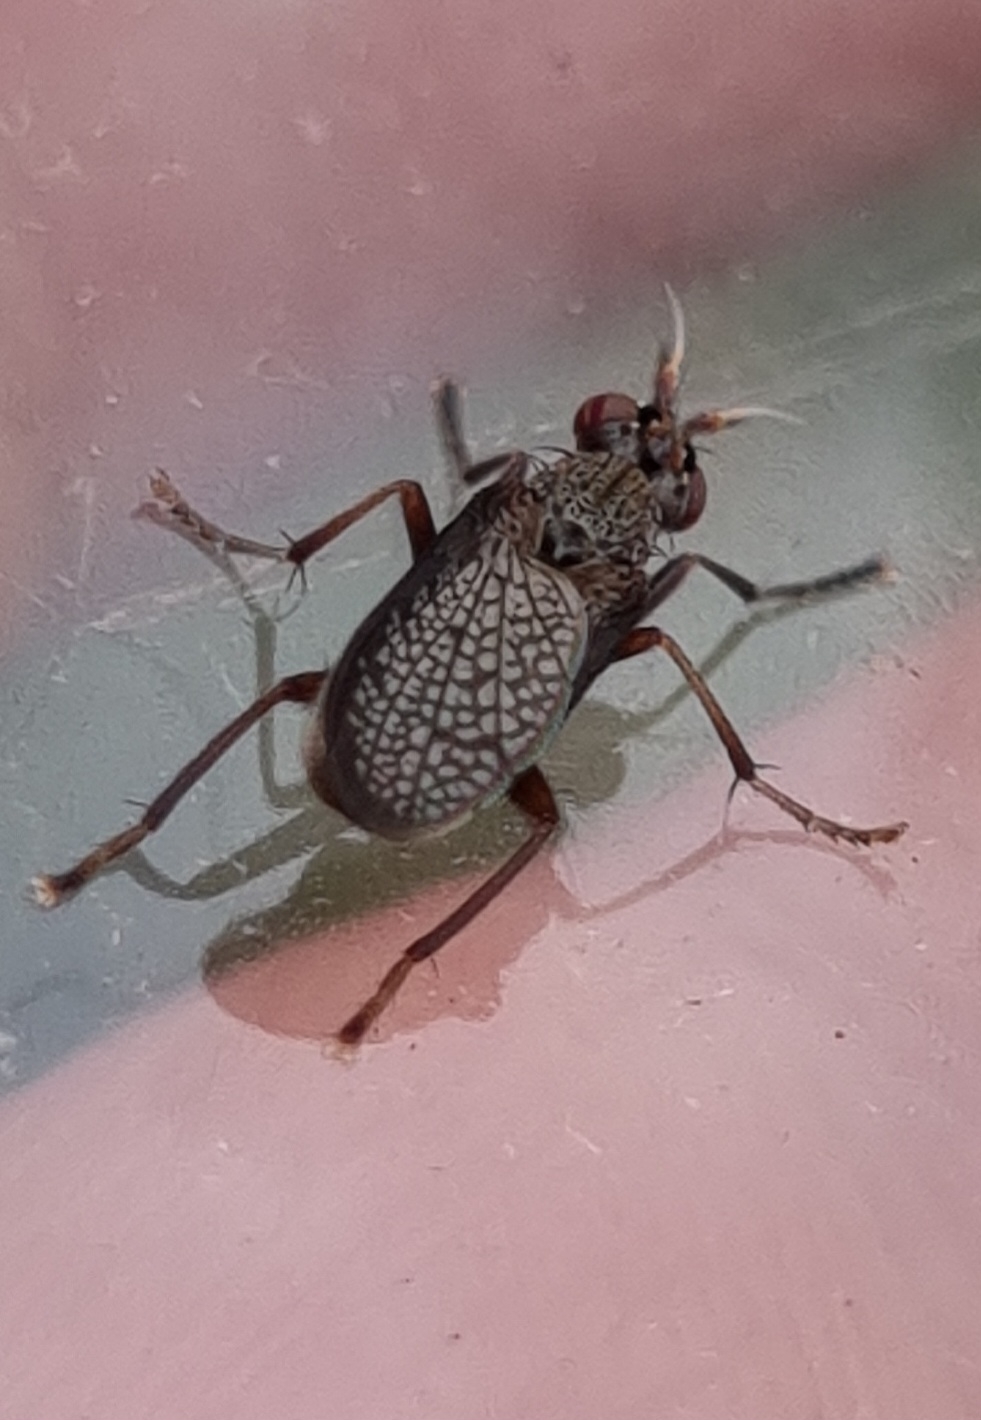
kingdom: Animalia
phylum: Arthropoda
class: Insecta
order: Diptera
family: Sciomyzidae
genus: Coremacera
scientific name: Coremacera marginata
